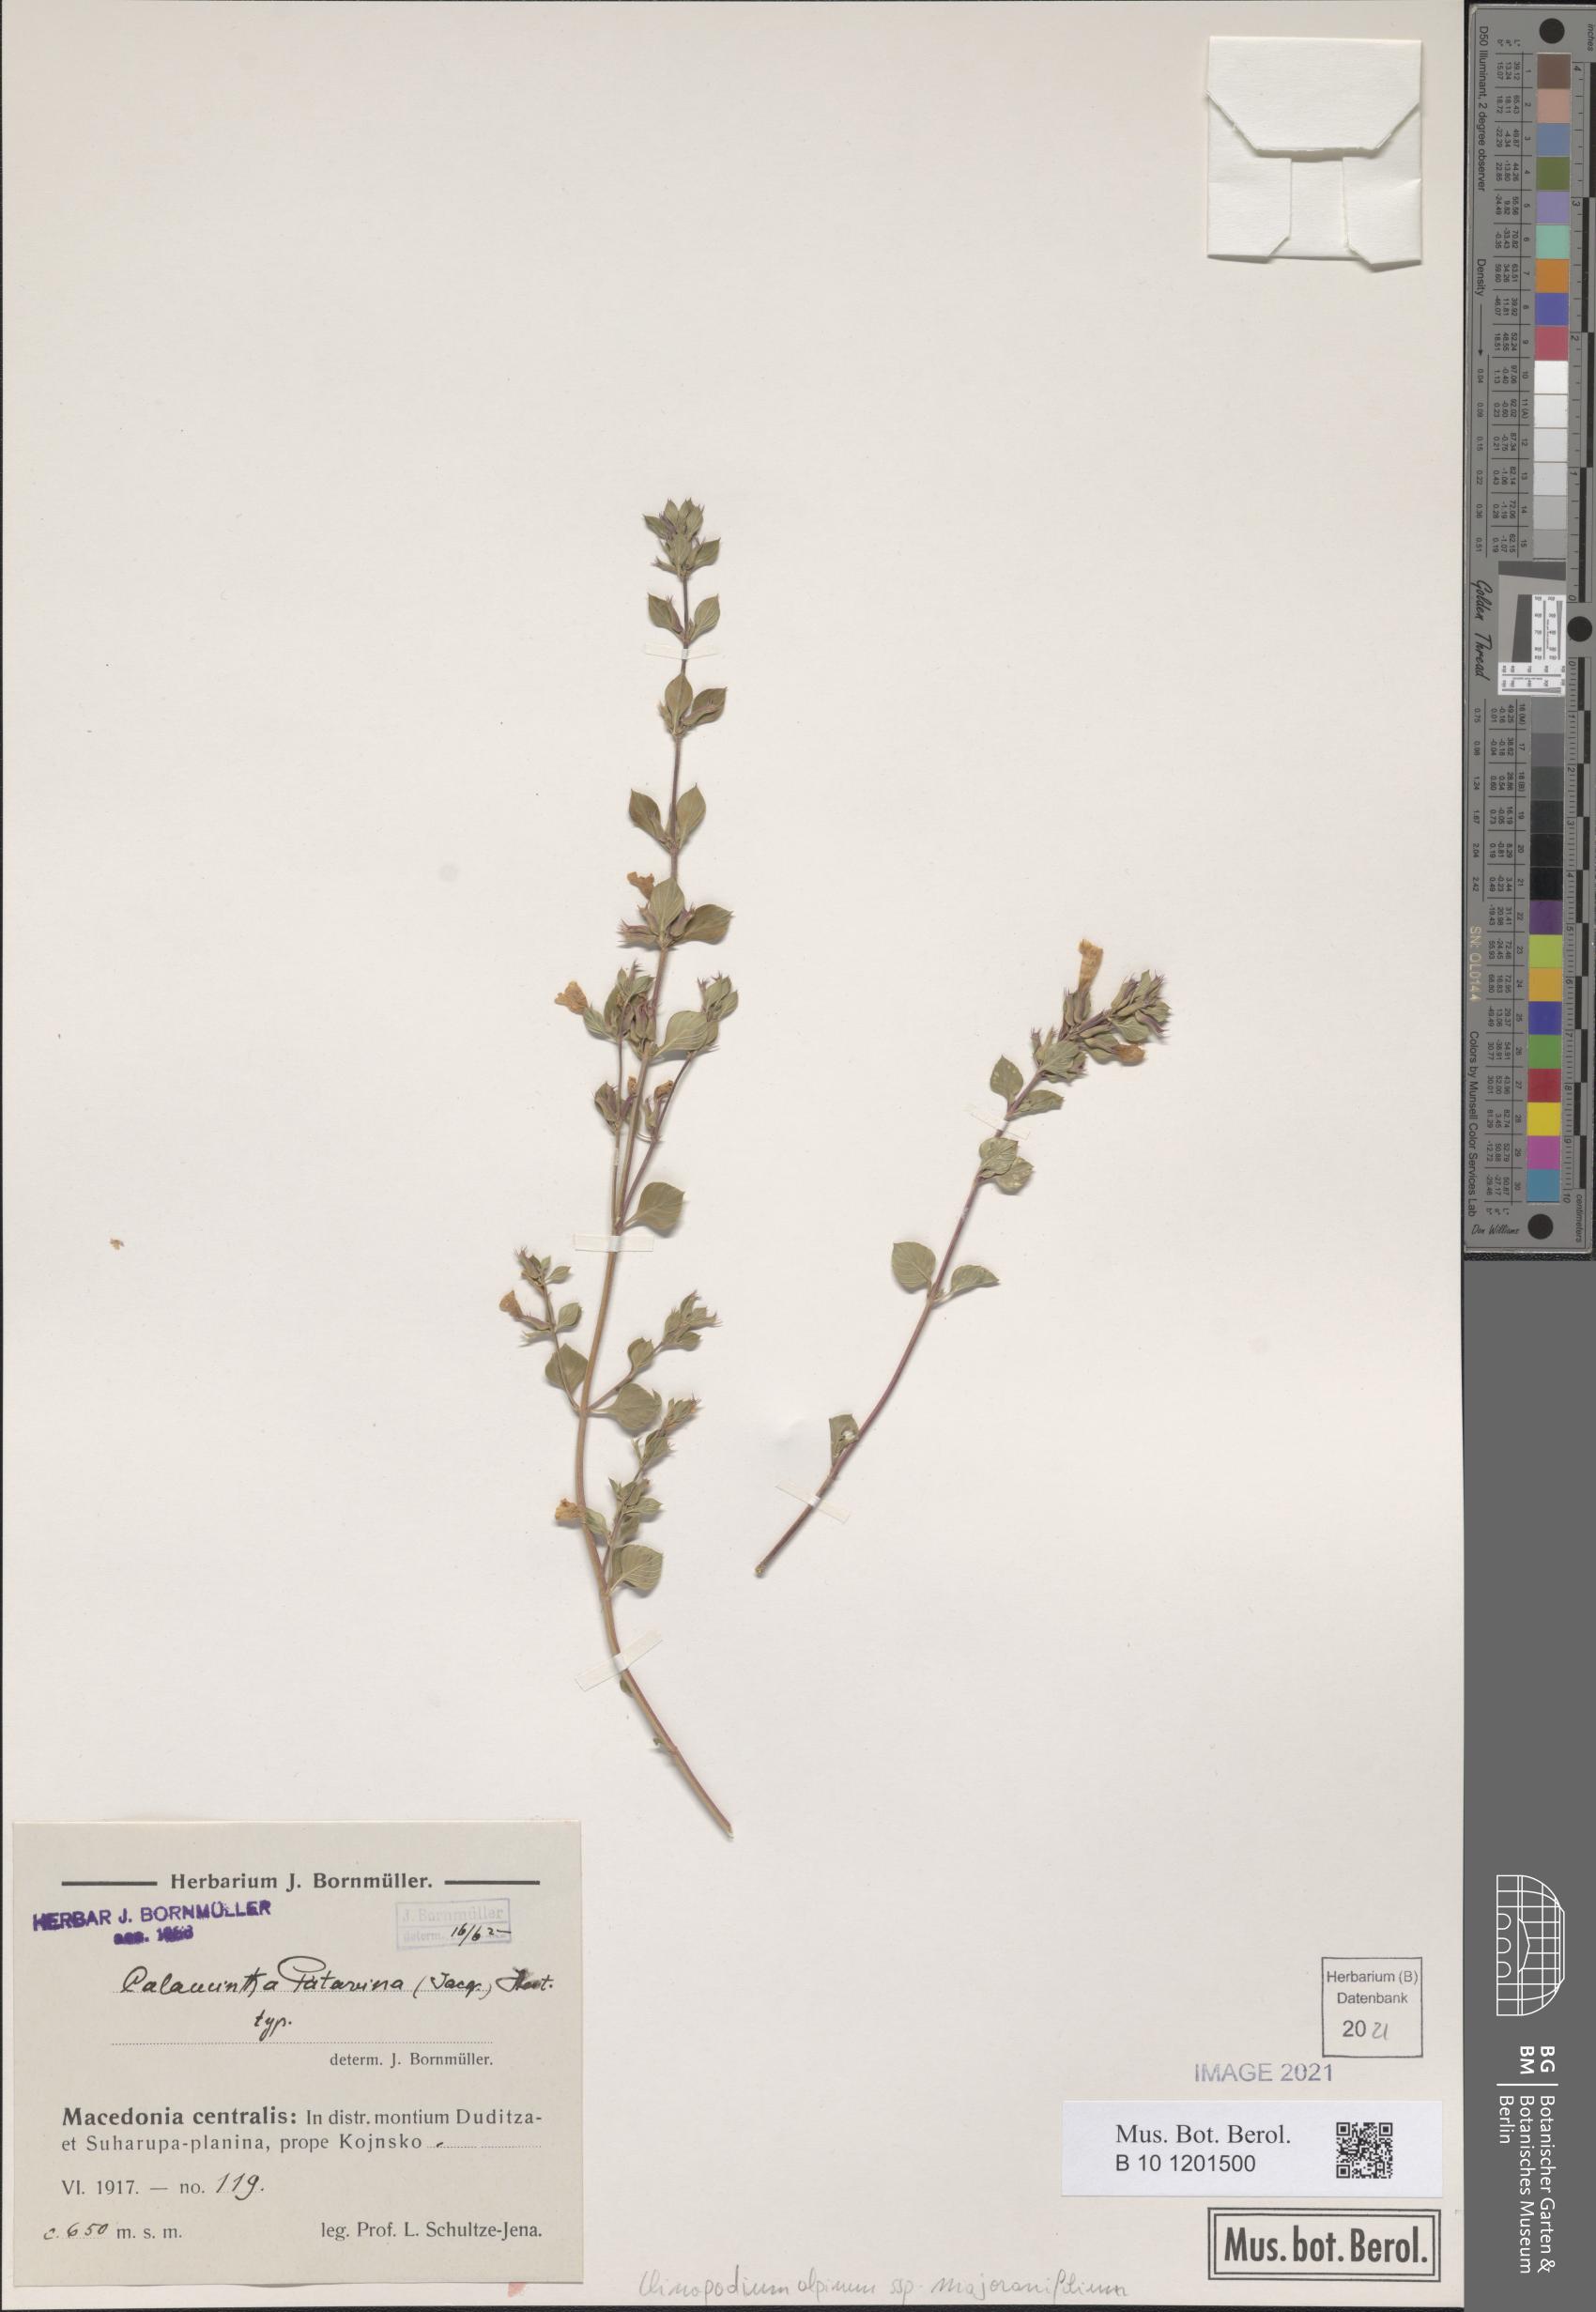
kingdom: Plantae
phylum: Tracheophyta
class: Magnoliopsida
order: Lamiales
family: Lamiaceae
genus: Clinopodium
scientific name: Clinopodium alpinum
